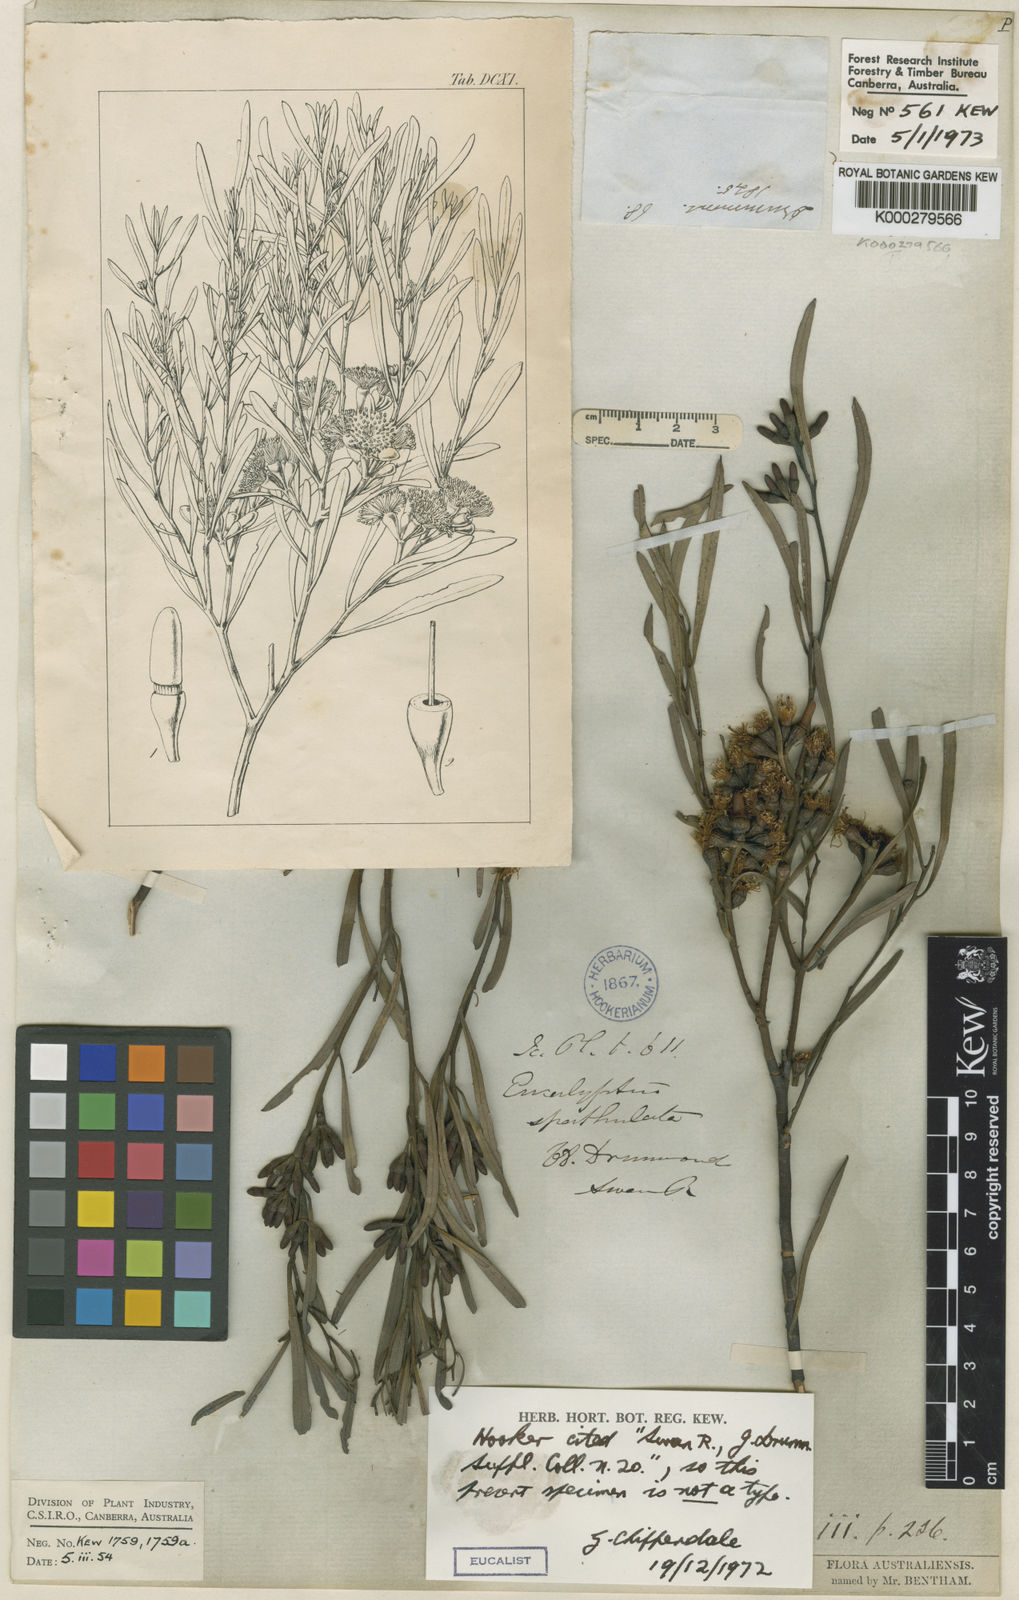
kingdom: Plantae
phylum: Tracheophyta
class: Magnoliopsida
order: Myrtales
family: Myrtaceae
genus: Eucalyptus
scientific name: Eucalyptus spathulata
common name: Swamp mallet
